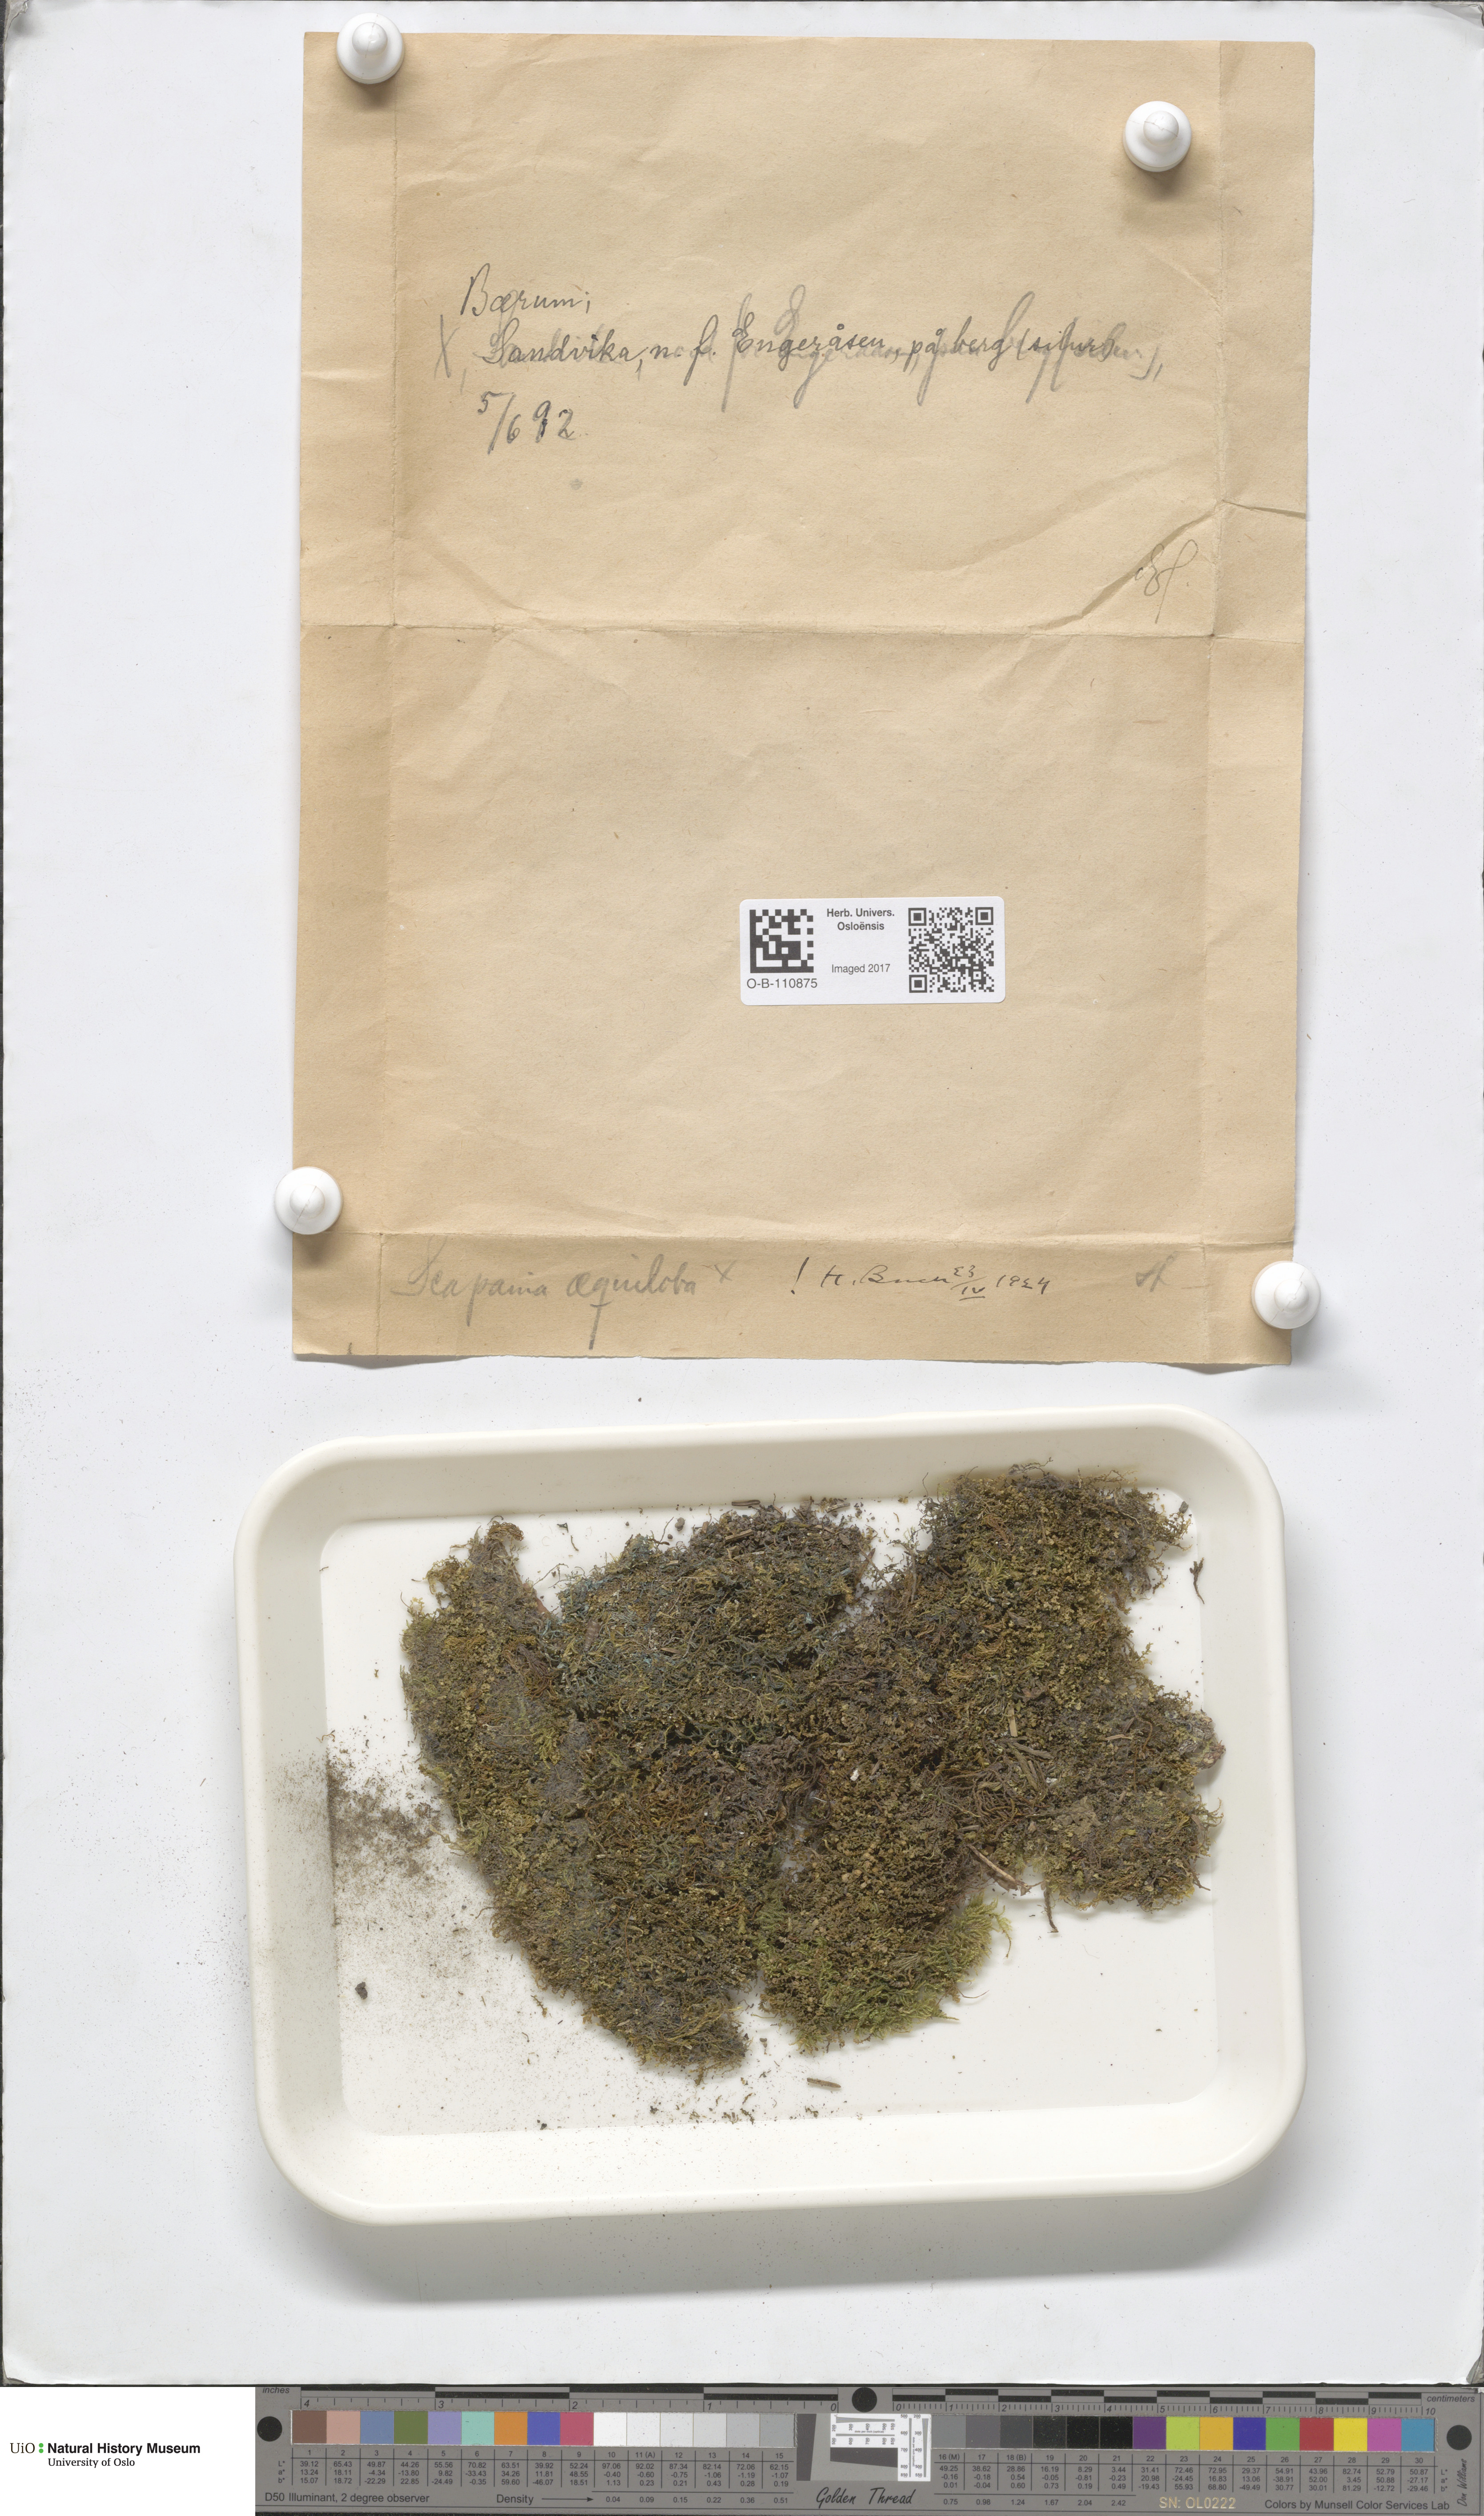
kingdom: Plantae
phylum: Marchantiophyta
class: Jungermanniopsida
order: Jungermanniales
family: Scapaniaceae
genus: Scapania
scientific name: Scapania aequiloba
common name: Lesser rough earwort
